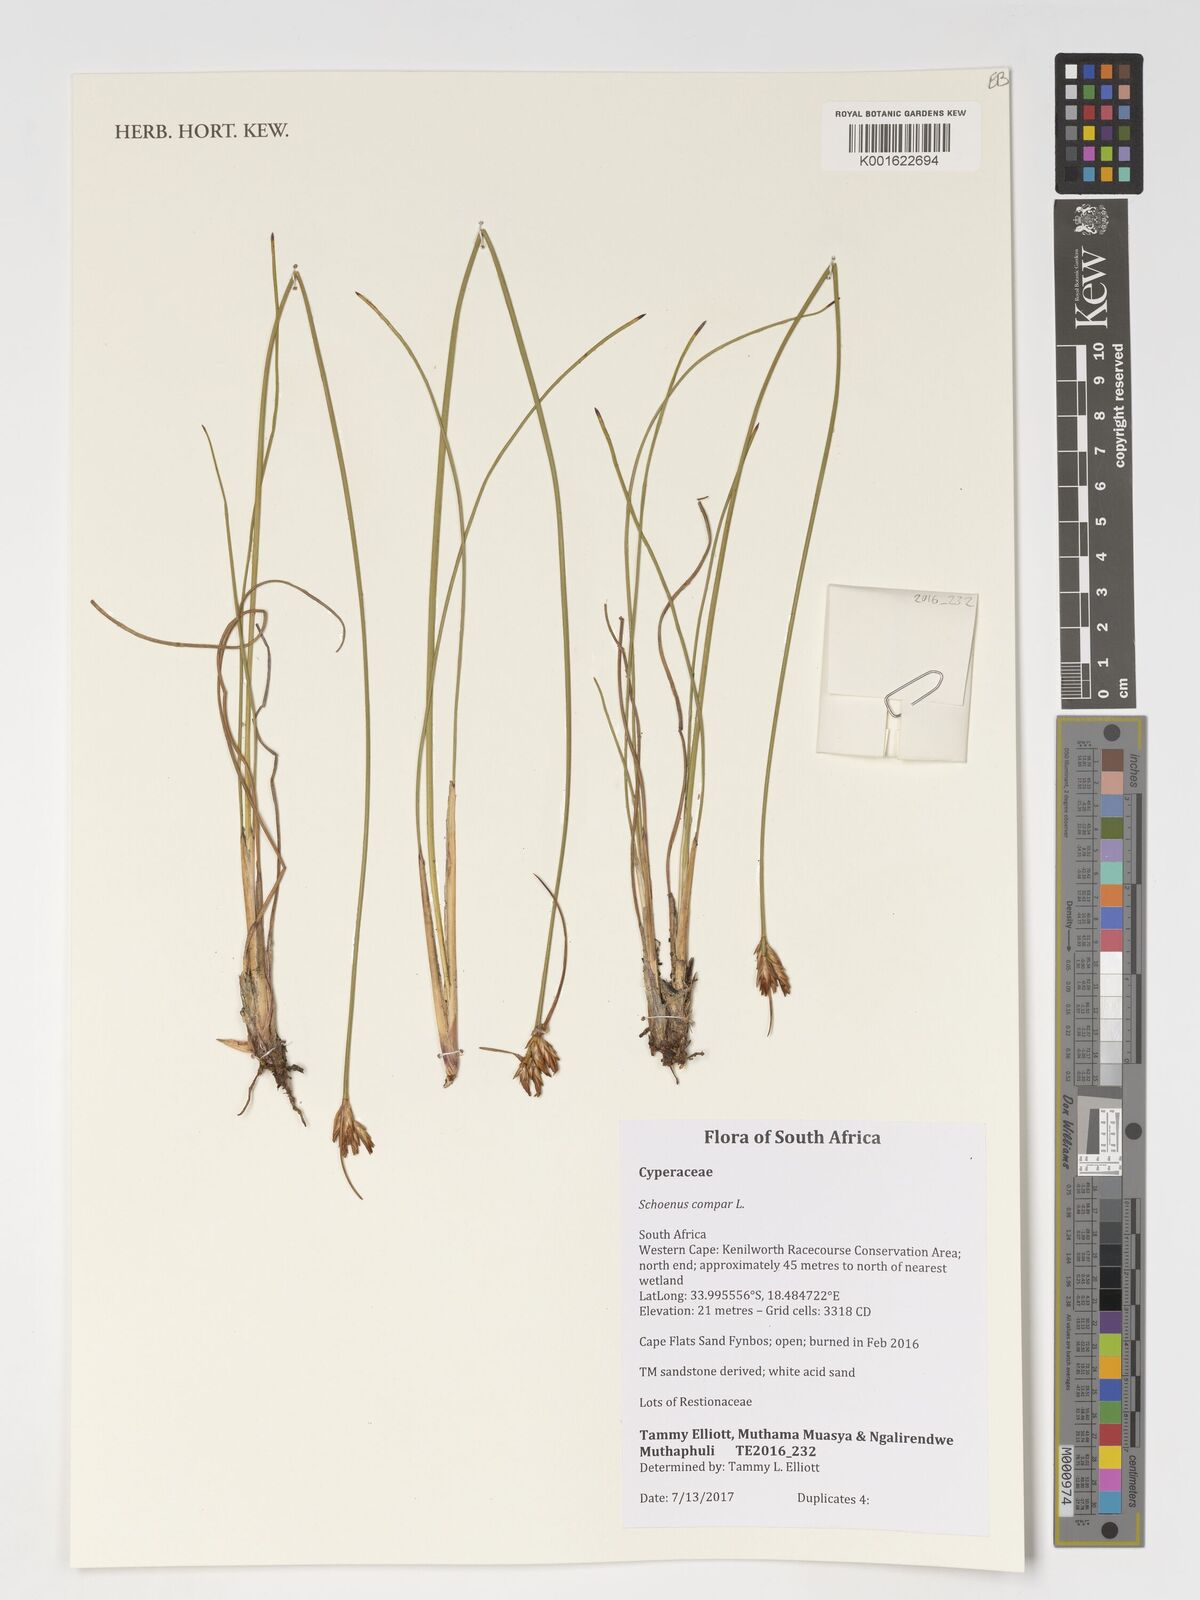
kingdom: Plantae
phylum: Tracheophyta
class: Liliopsida
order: Poales
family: Cyperaceae
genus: Schoenus
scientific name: Schoenus compar
